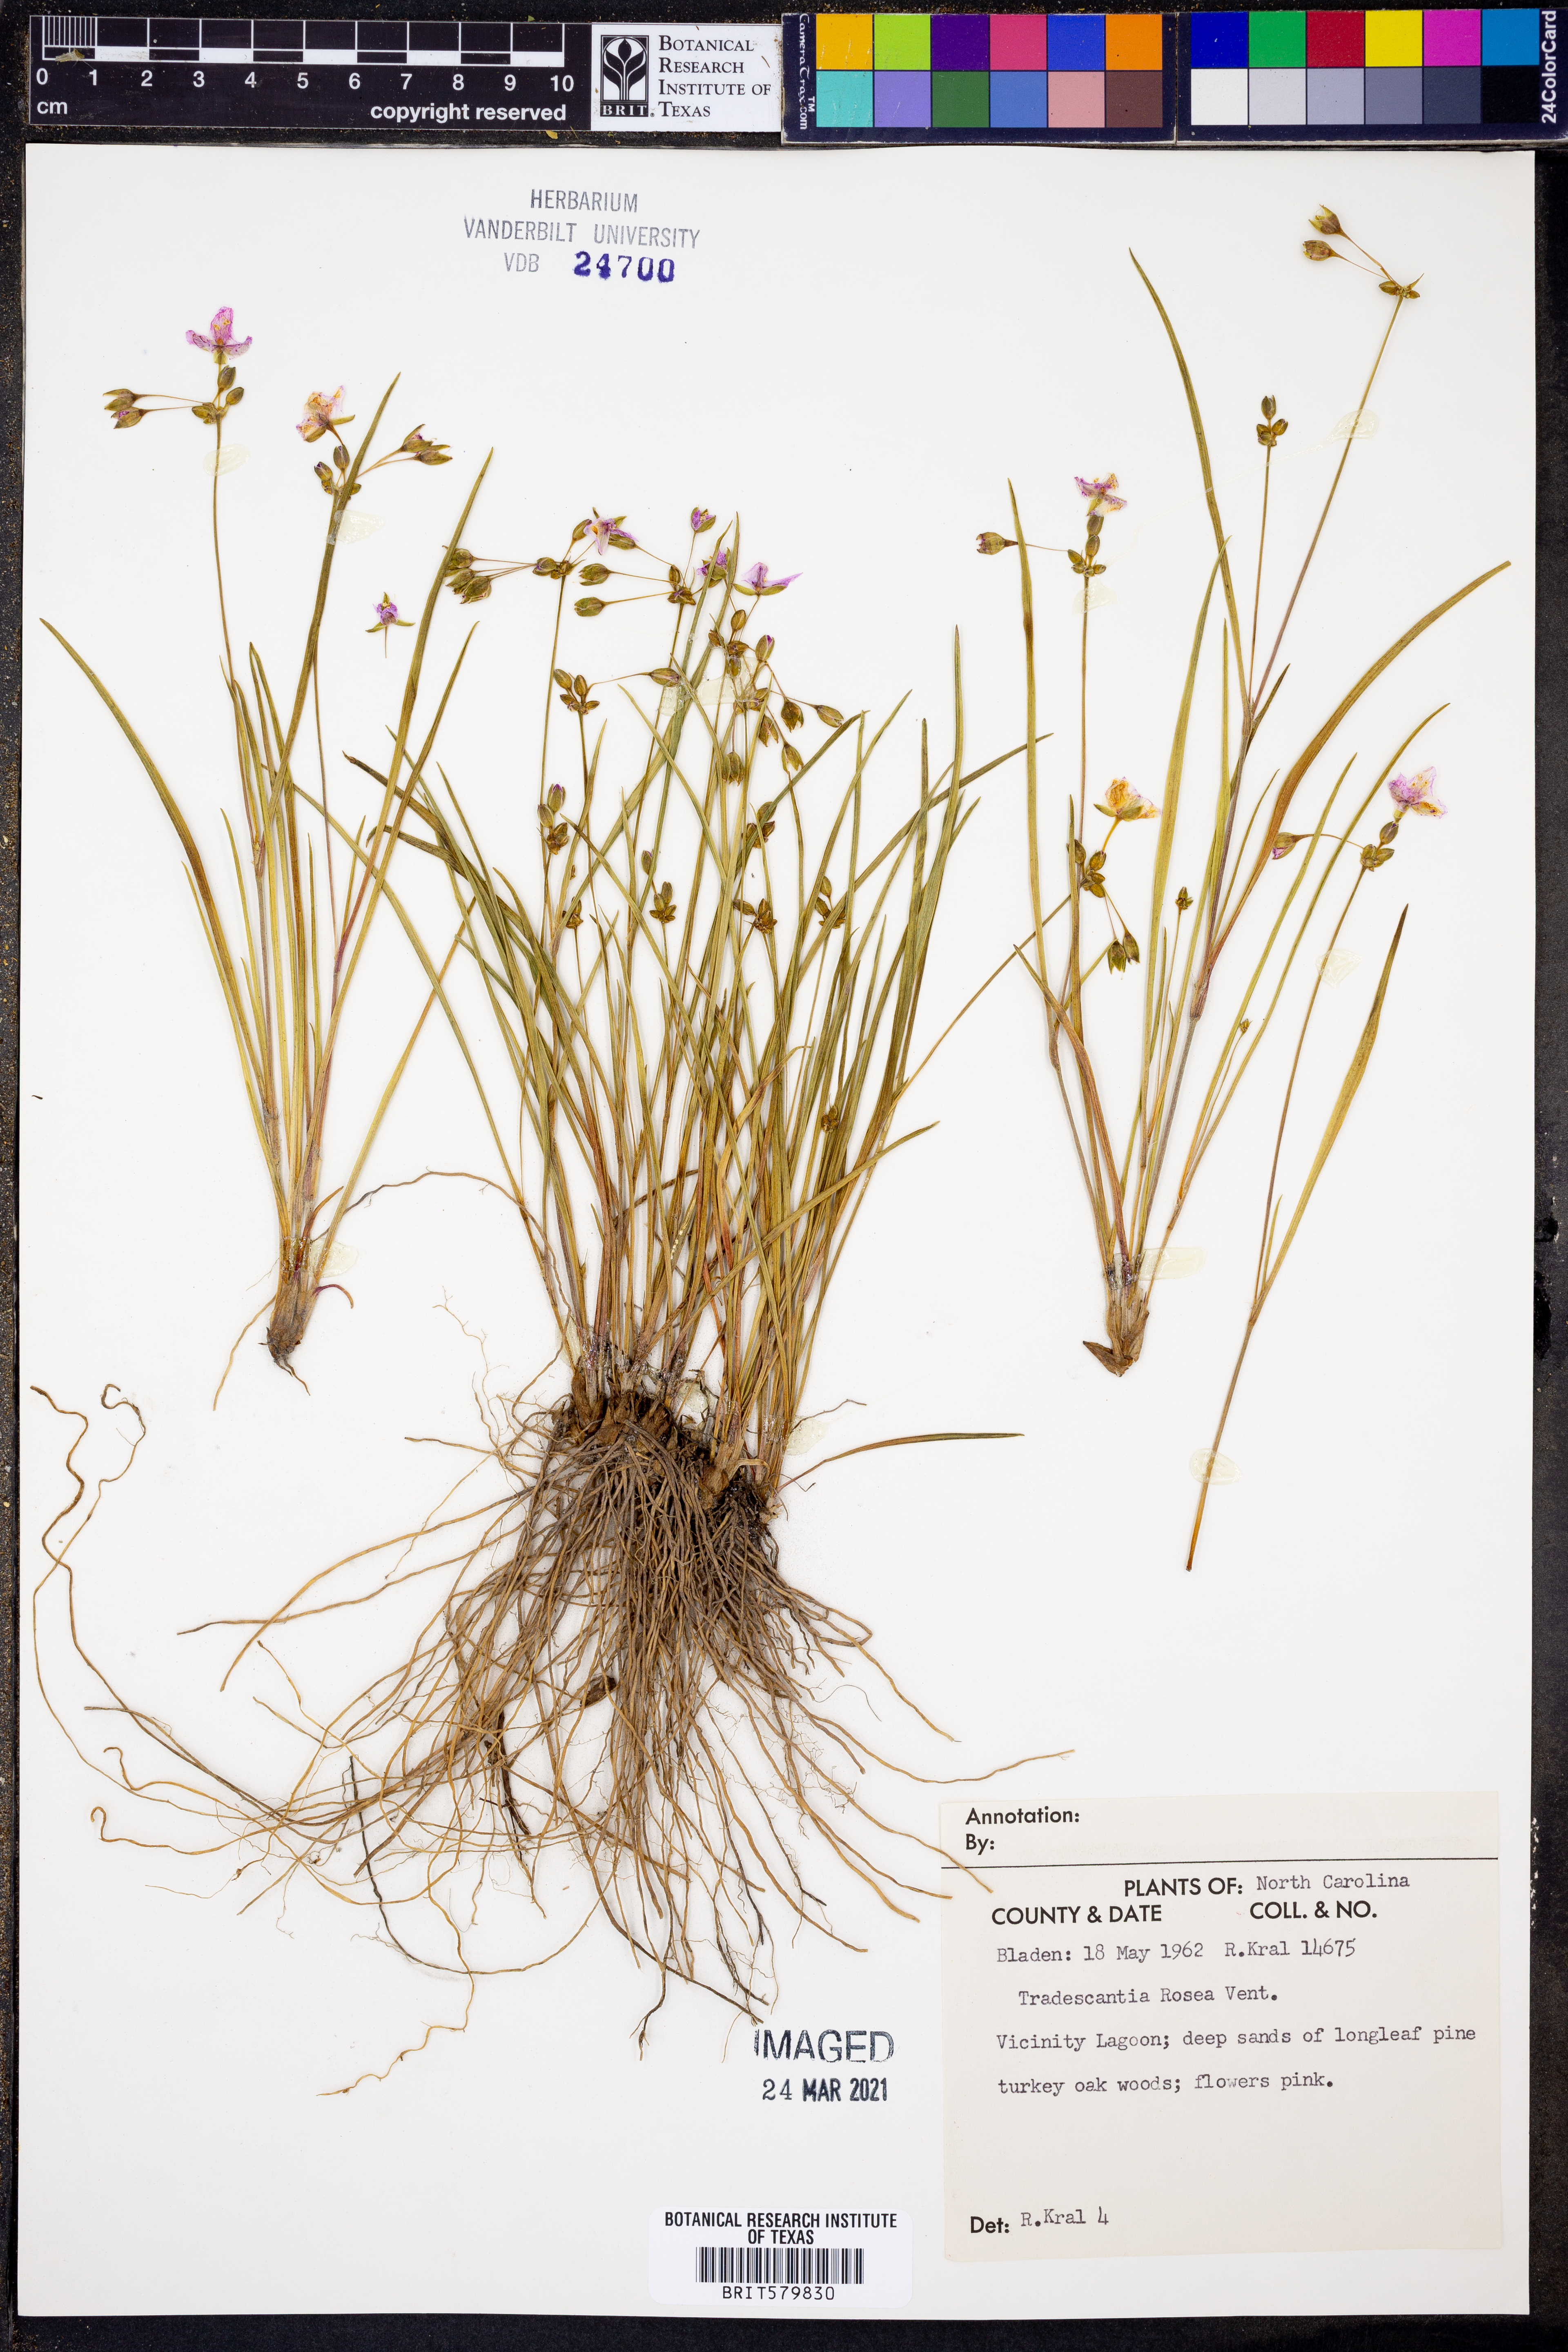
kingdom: Plantae
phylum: Tracheophyta
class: Liliopsida
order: Commelinales
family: Commelinaceae
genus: Callisia
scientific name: Callisia rosea
